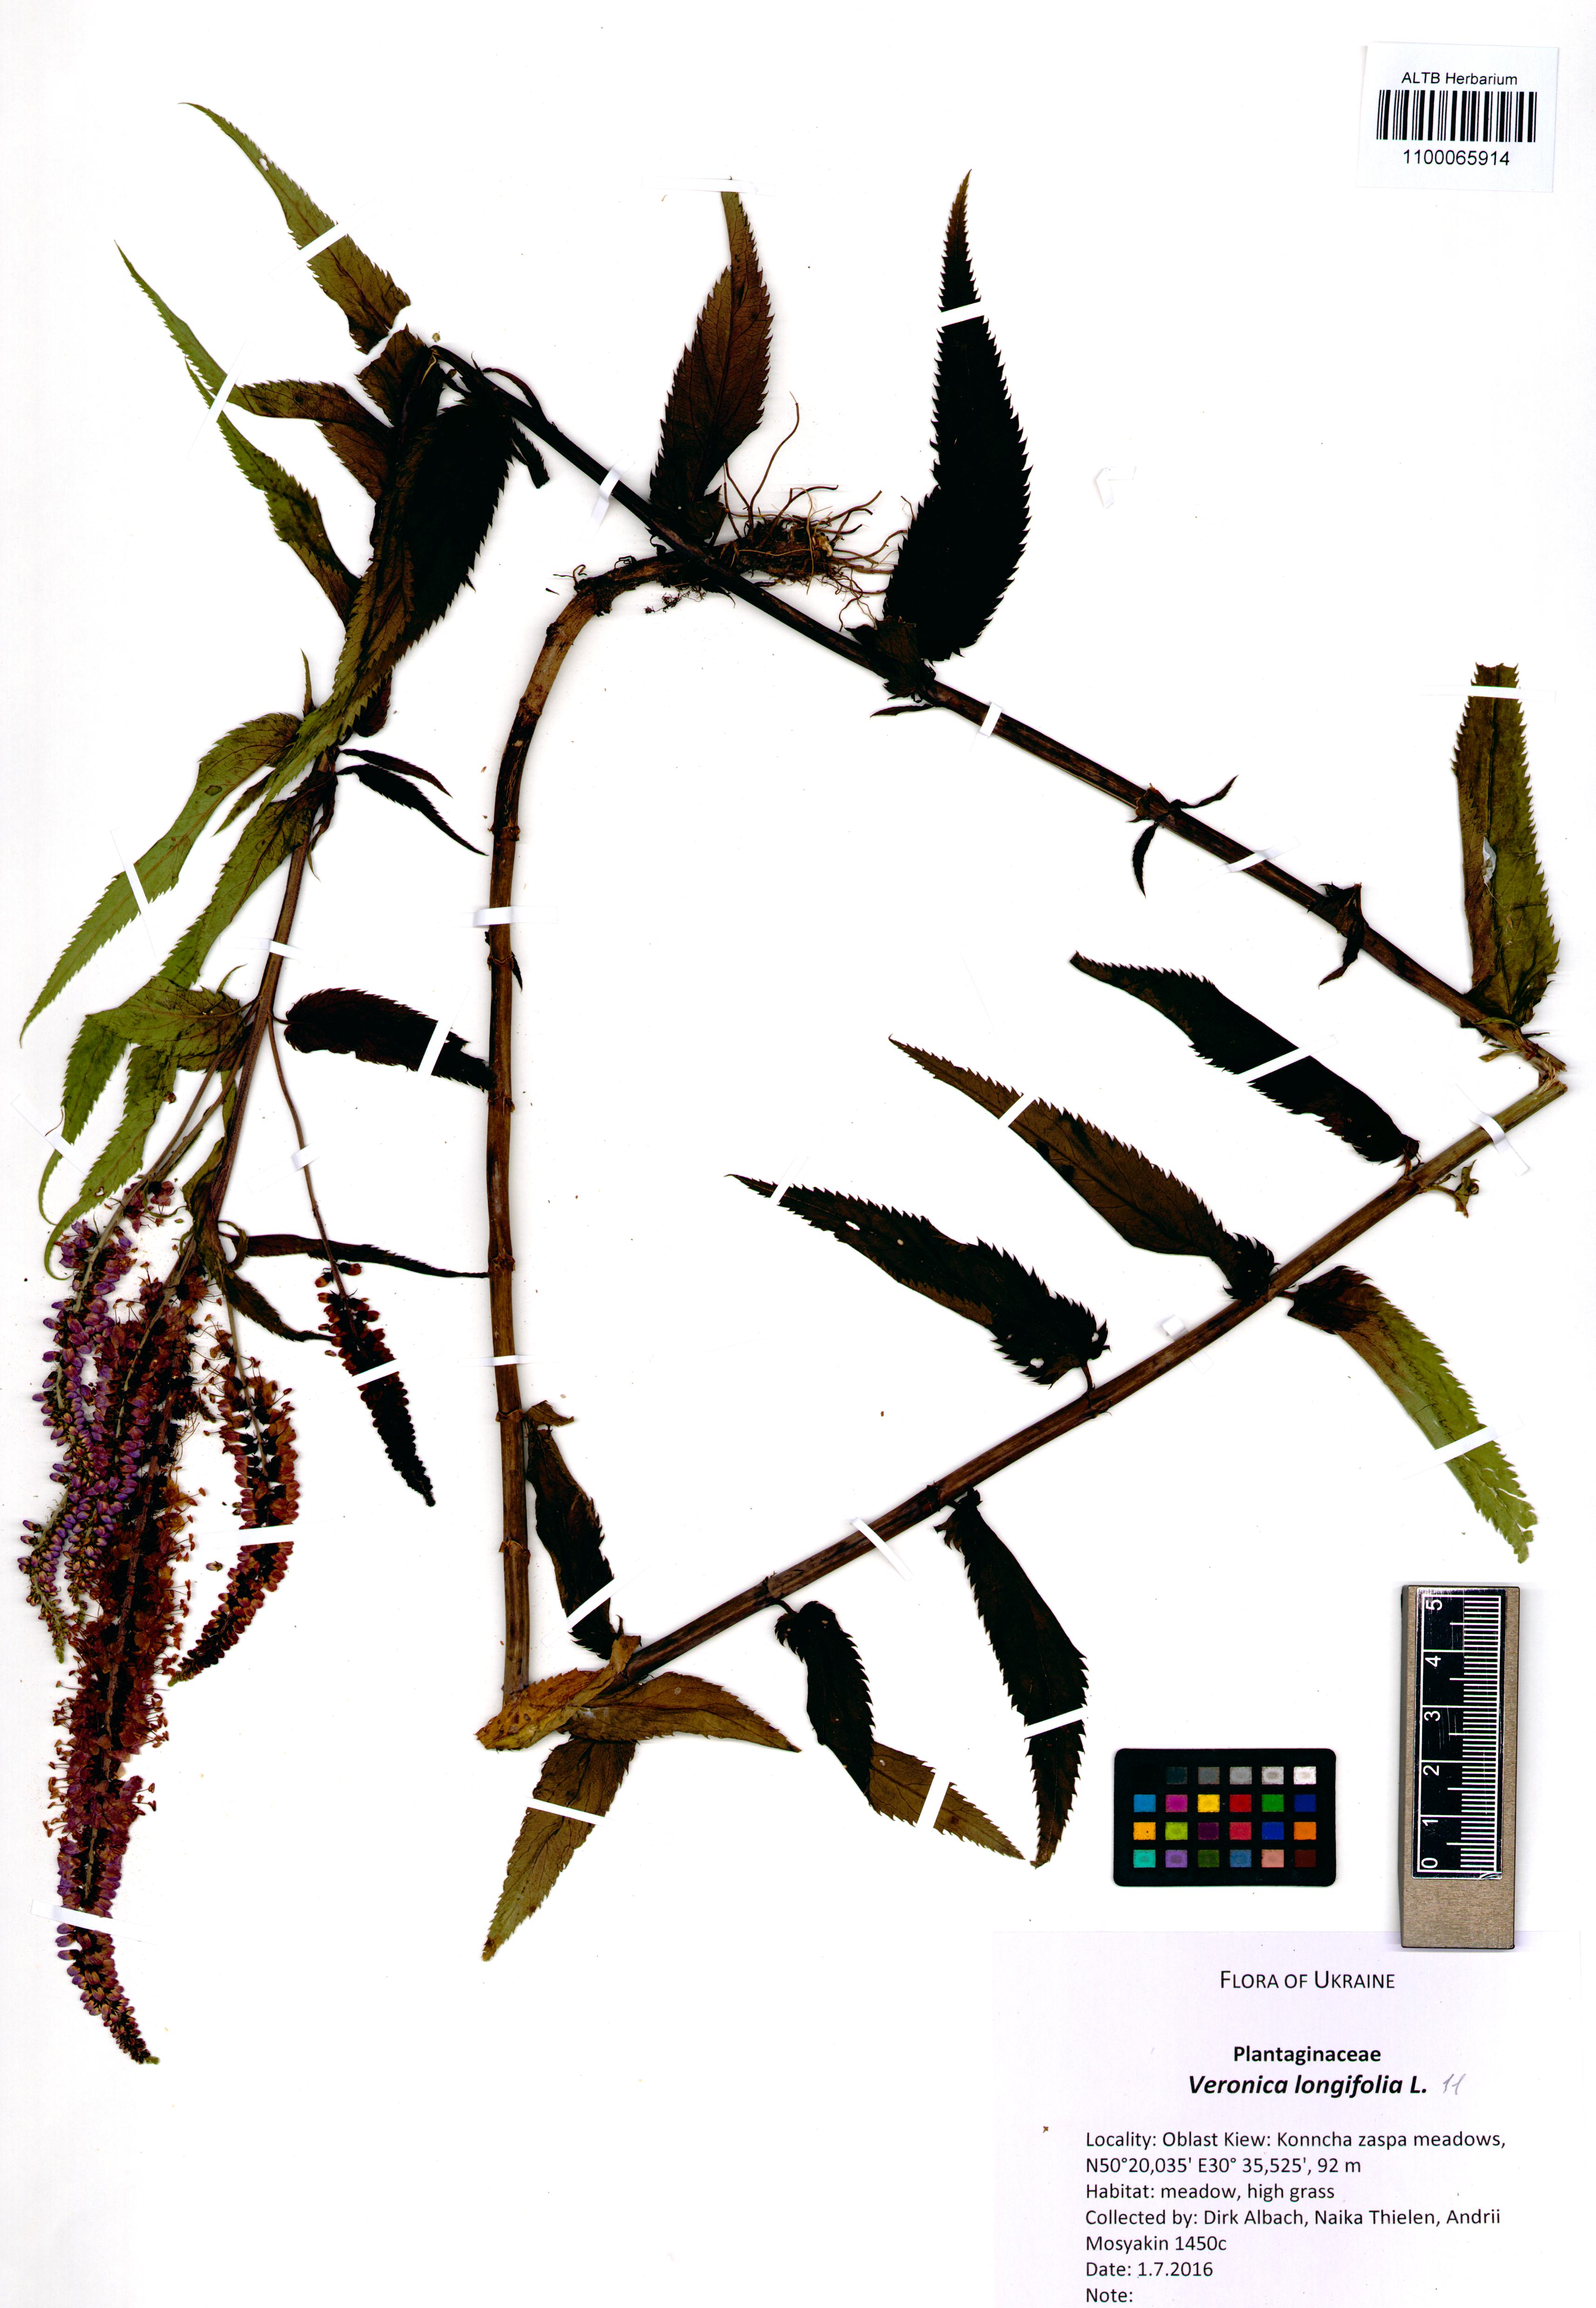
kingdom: Plantae
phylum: Tracheophyta
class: Magnoliopsida
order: Lamiales
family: Plantaginaceae
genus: Veronica
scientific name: Veronica longifolia
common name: Garden speedwell
